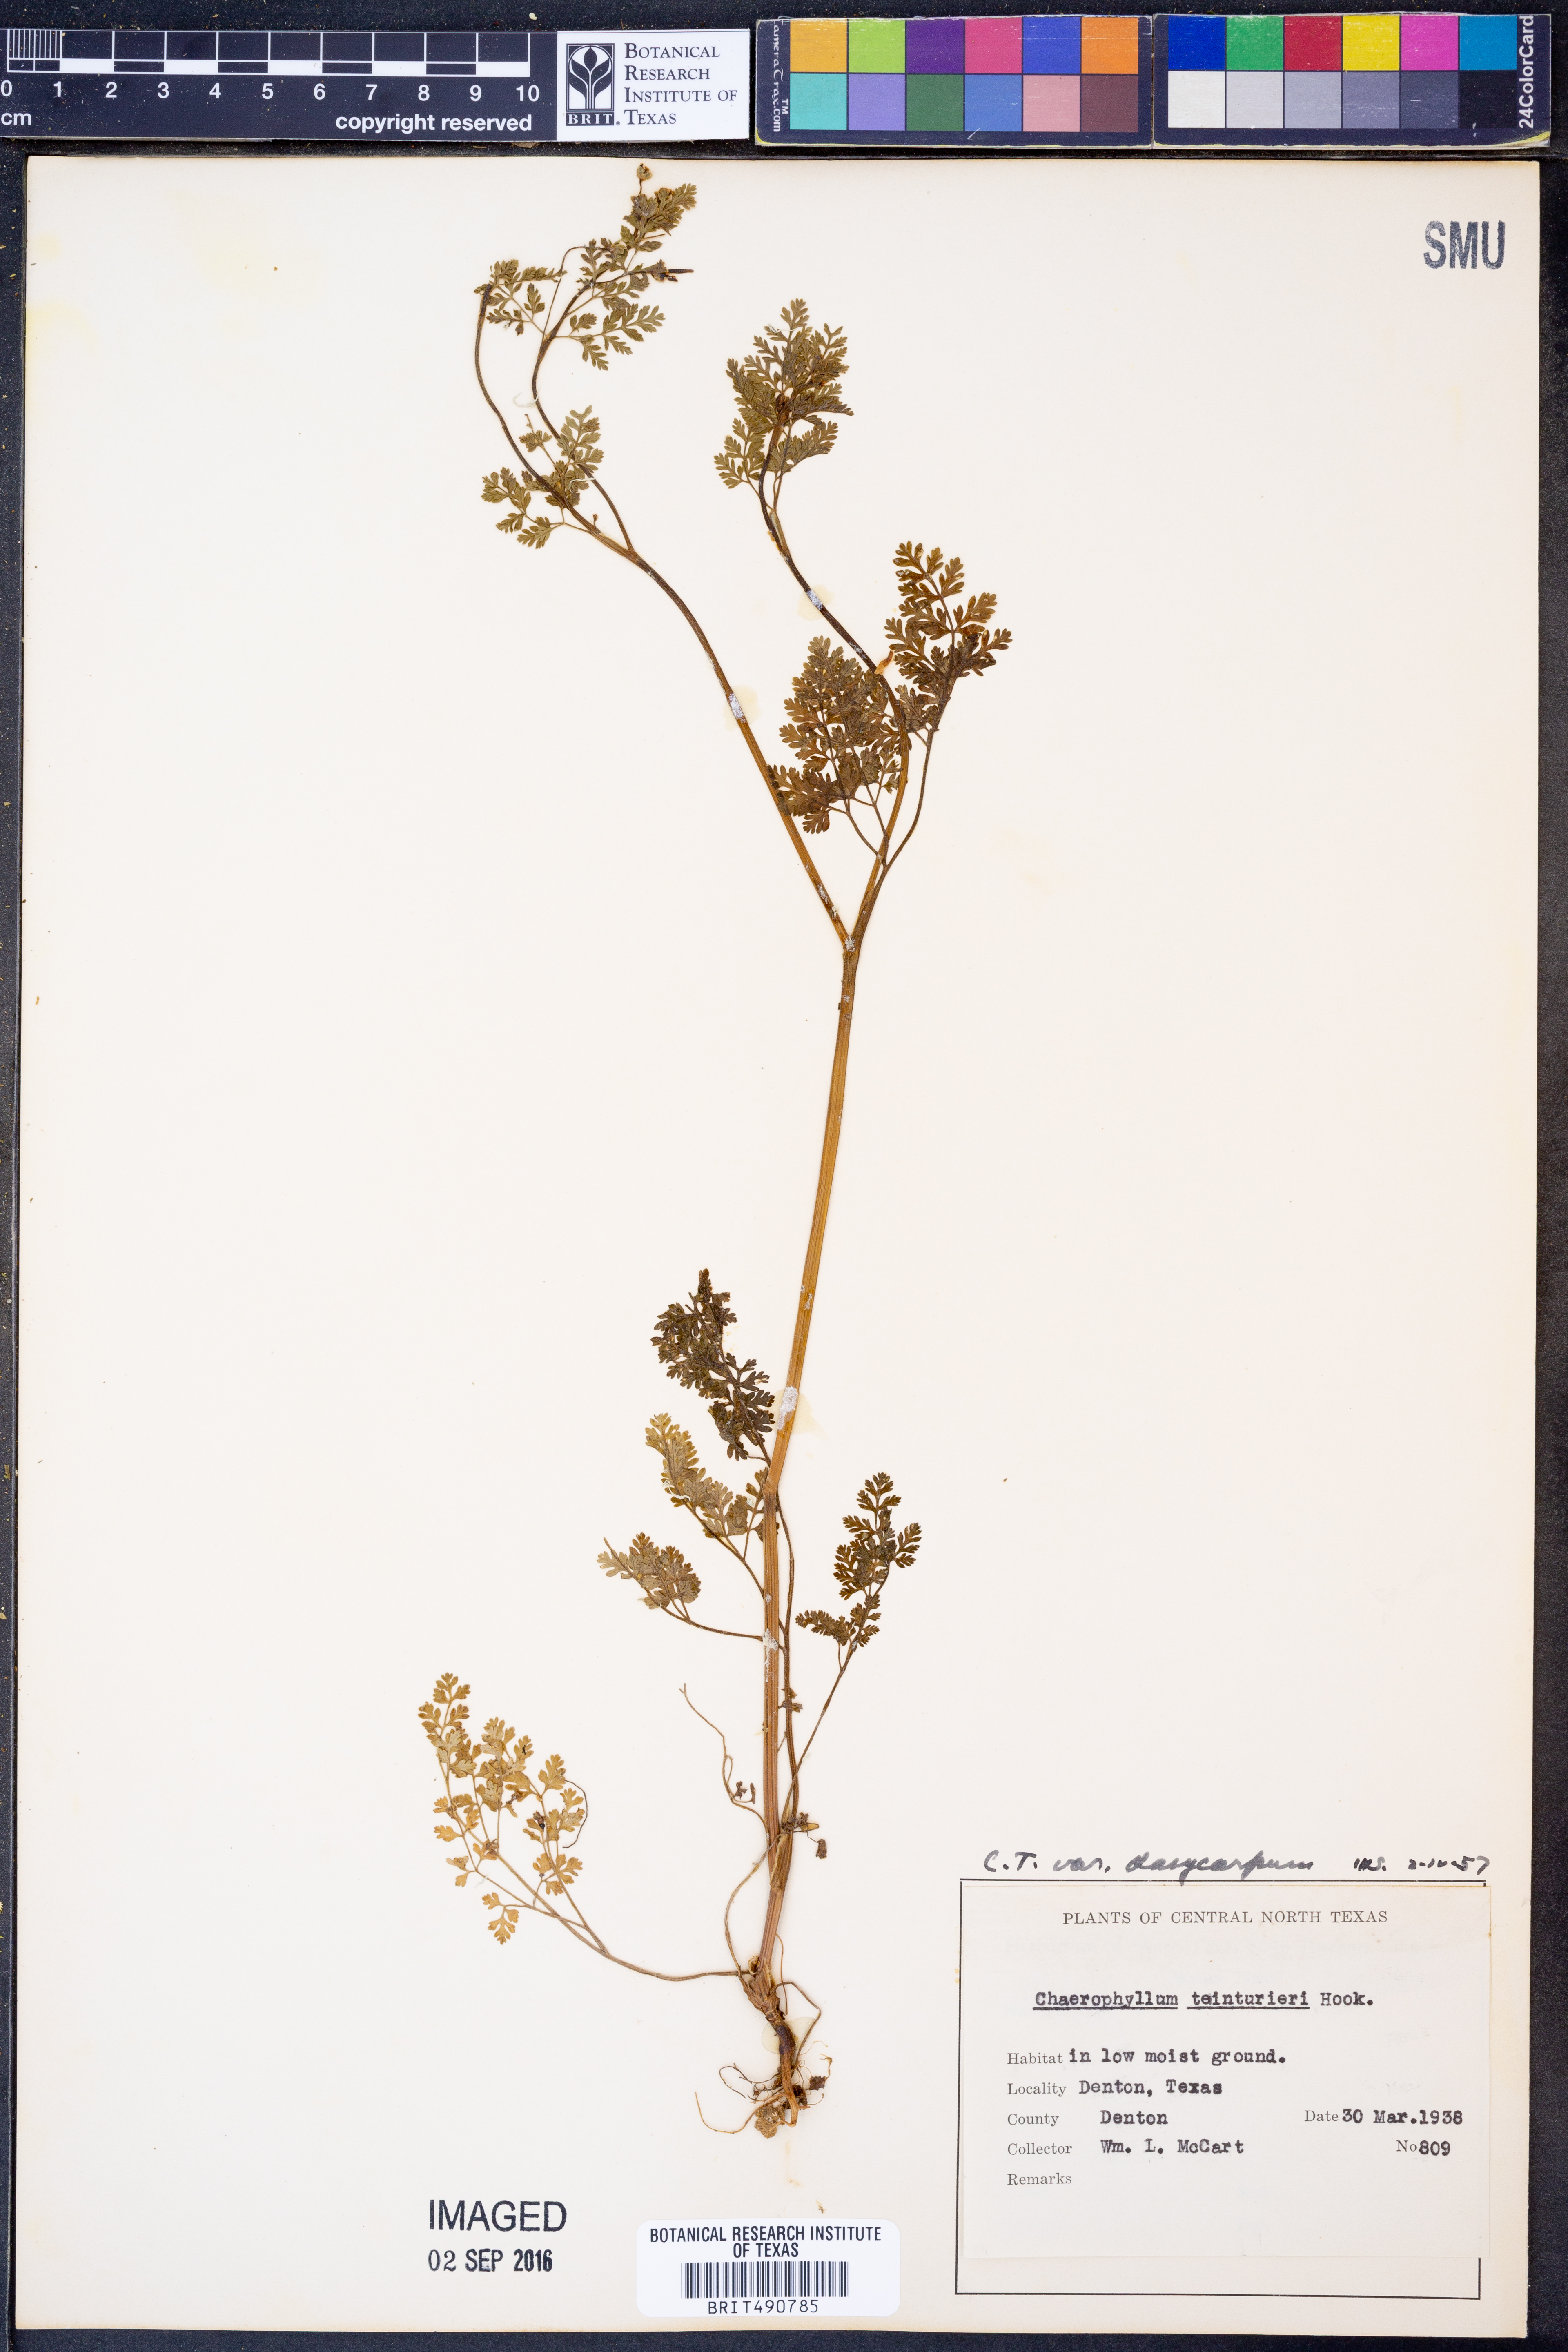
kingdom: Plantae
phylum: Tracheophyta
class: Magnoliopsida
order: Apiales
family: Apiaceae
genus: Chaerophyllum
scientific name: Chaerophyllum dasycarpum
